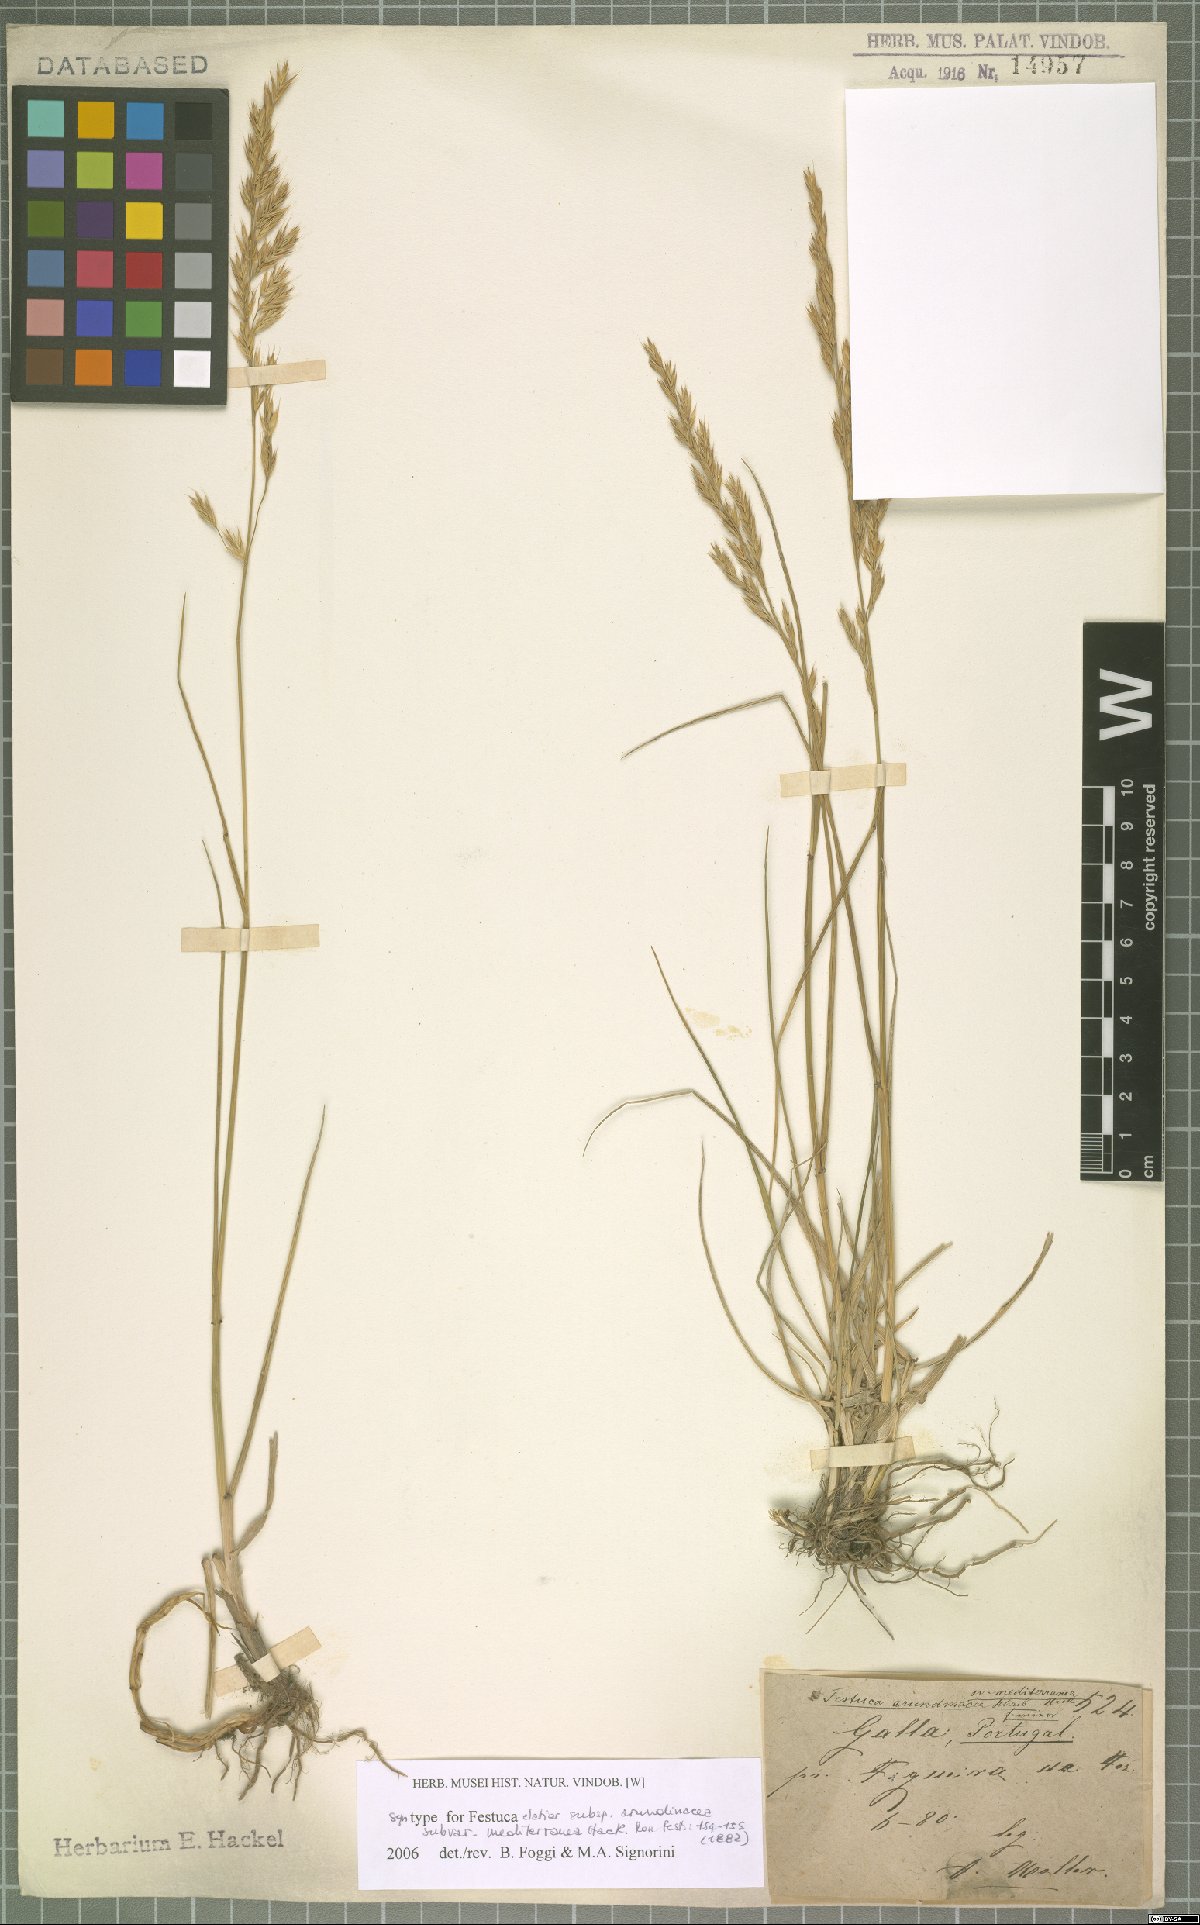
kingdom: Plantae
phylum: Tracheophyta
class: Liliopsida
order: Poales
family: Poaceae
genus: Lolium
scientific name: Lolium mediterraneum
